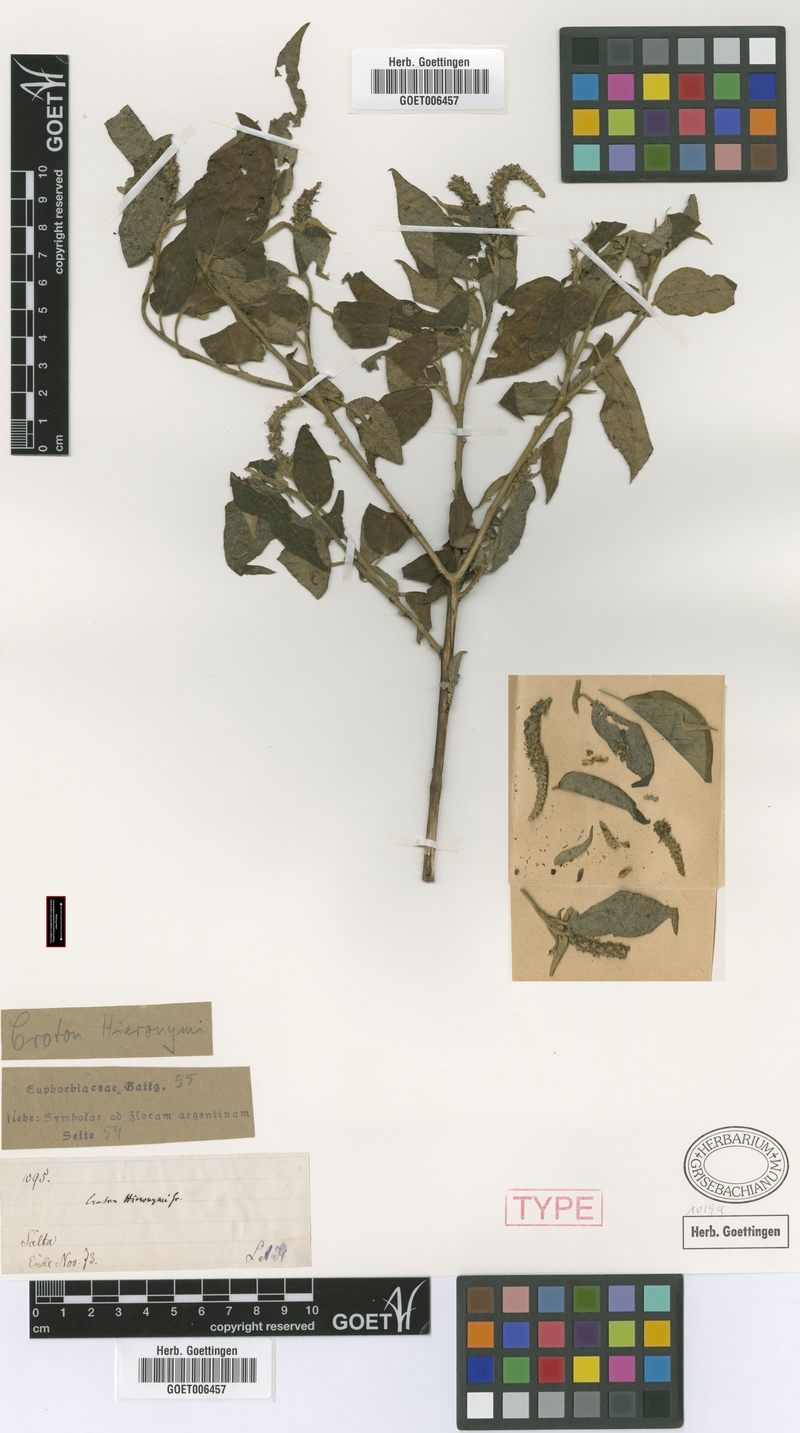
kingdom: Plantae
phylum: Tracheophyta
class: Magnoliopsida
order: Malpighiales
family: Euphorbiaceae
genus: Croton
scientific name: Croton hieronymi
